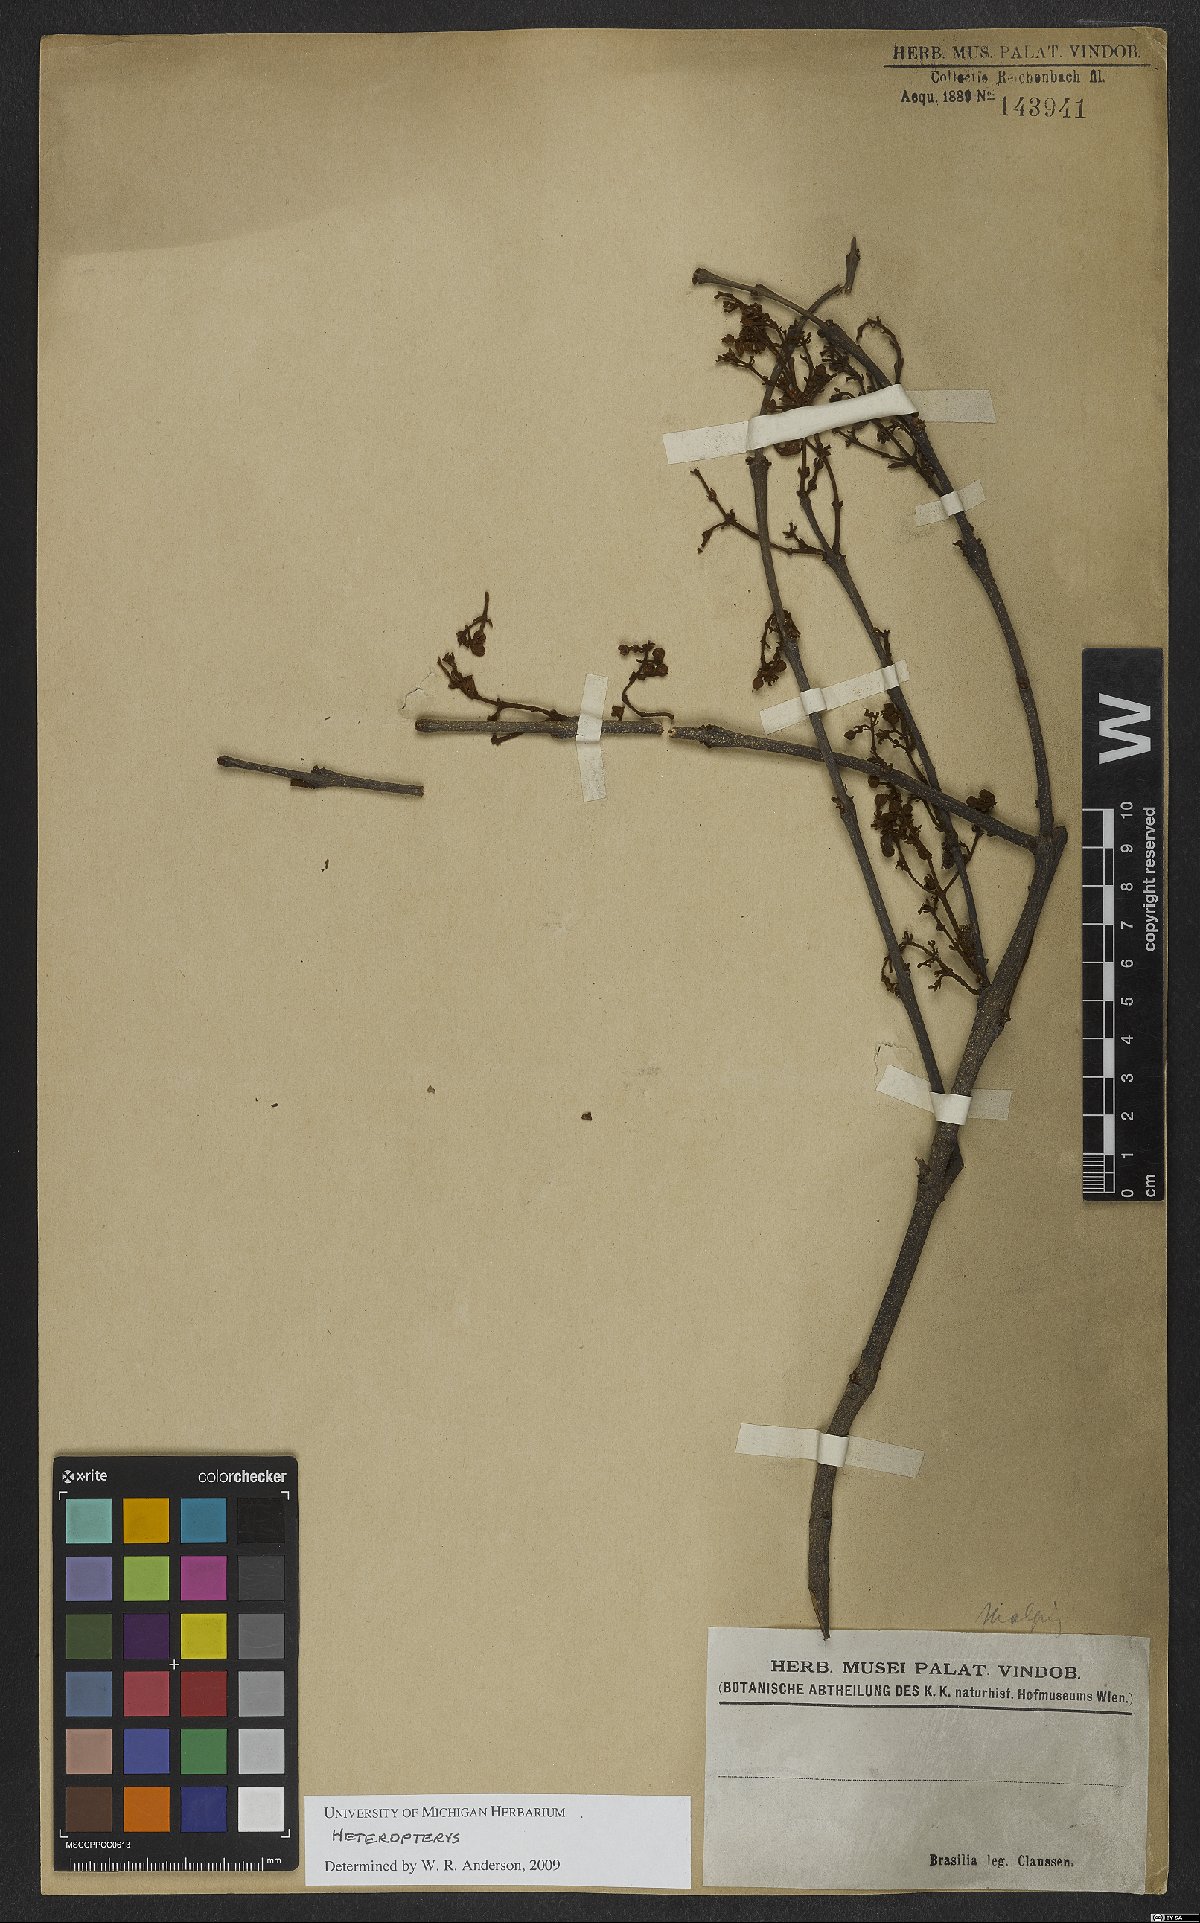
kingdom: Plantae
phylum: Tracheophyta
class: Magnoliopsida
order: Malpighiales
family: Malpighiaceae
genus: Heteropterys
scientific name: Heteropterys
